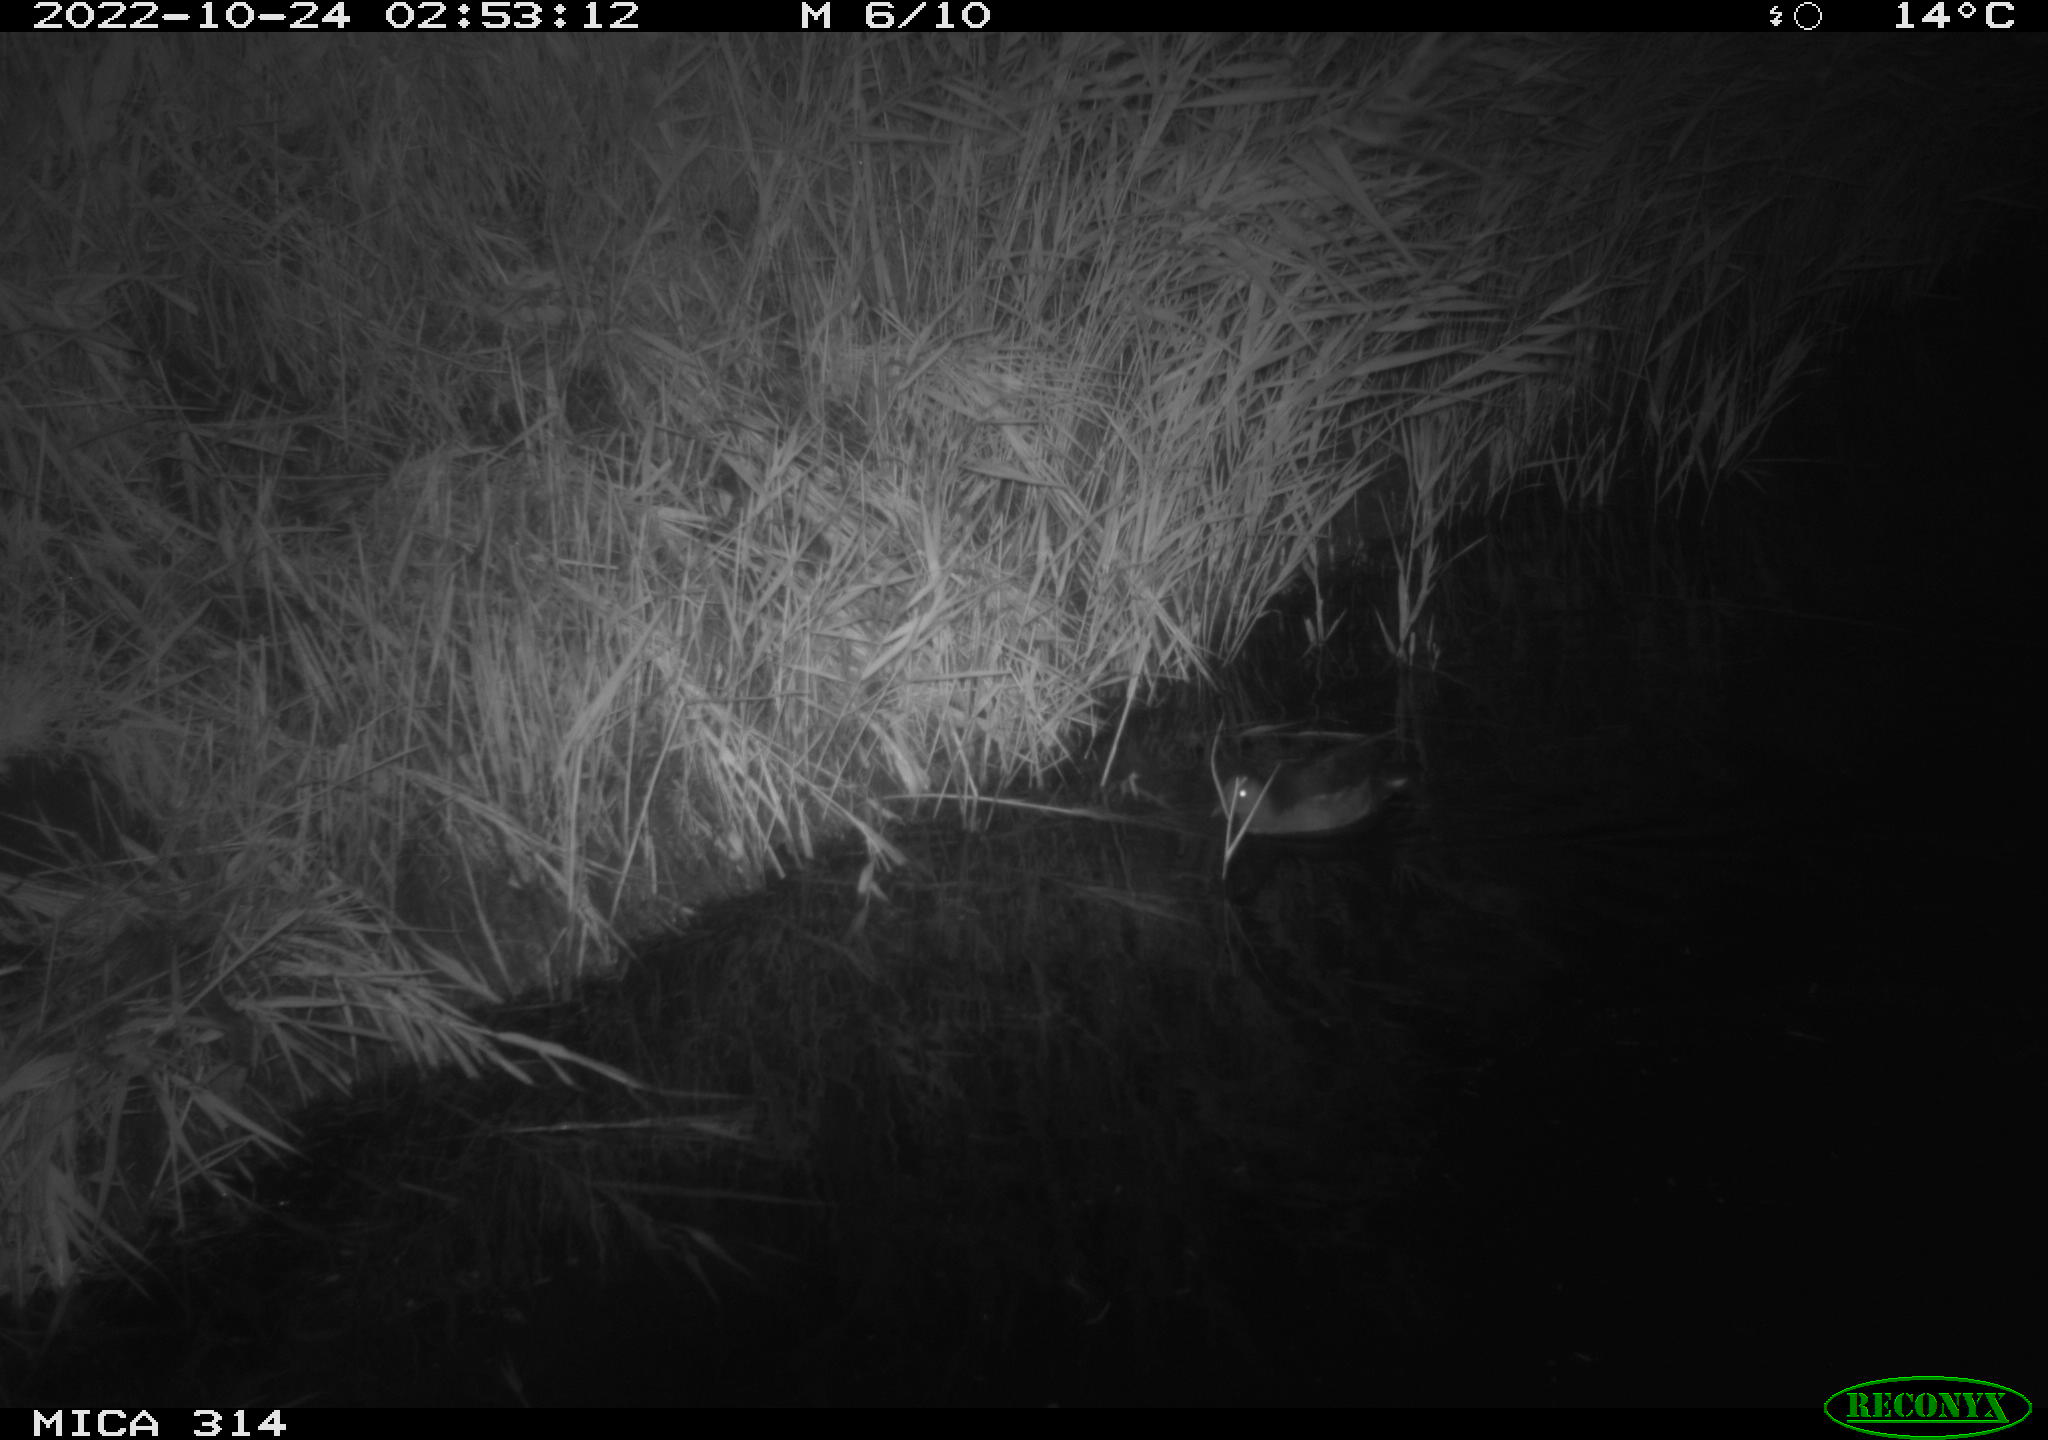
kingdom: Animalia
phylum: Chordata
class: Aves
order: Anseriformes
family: Anatidae
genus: Mareca
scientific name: Mareca strepera
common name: Gadwall
